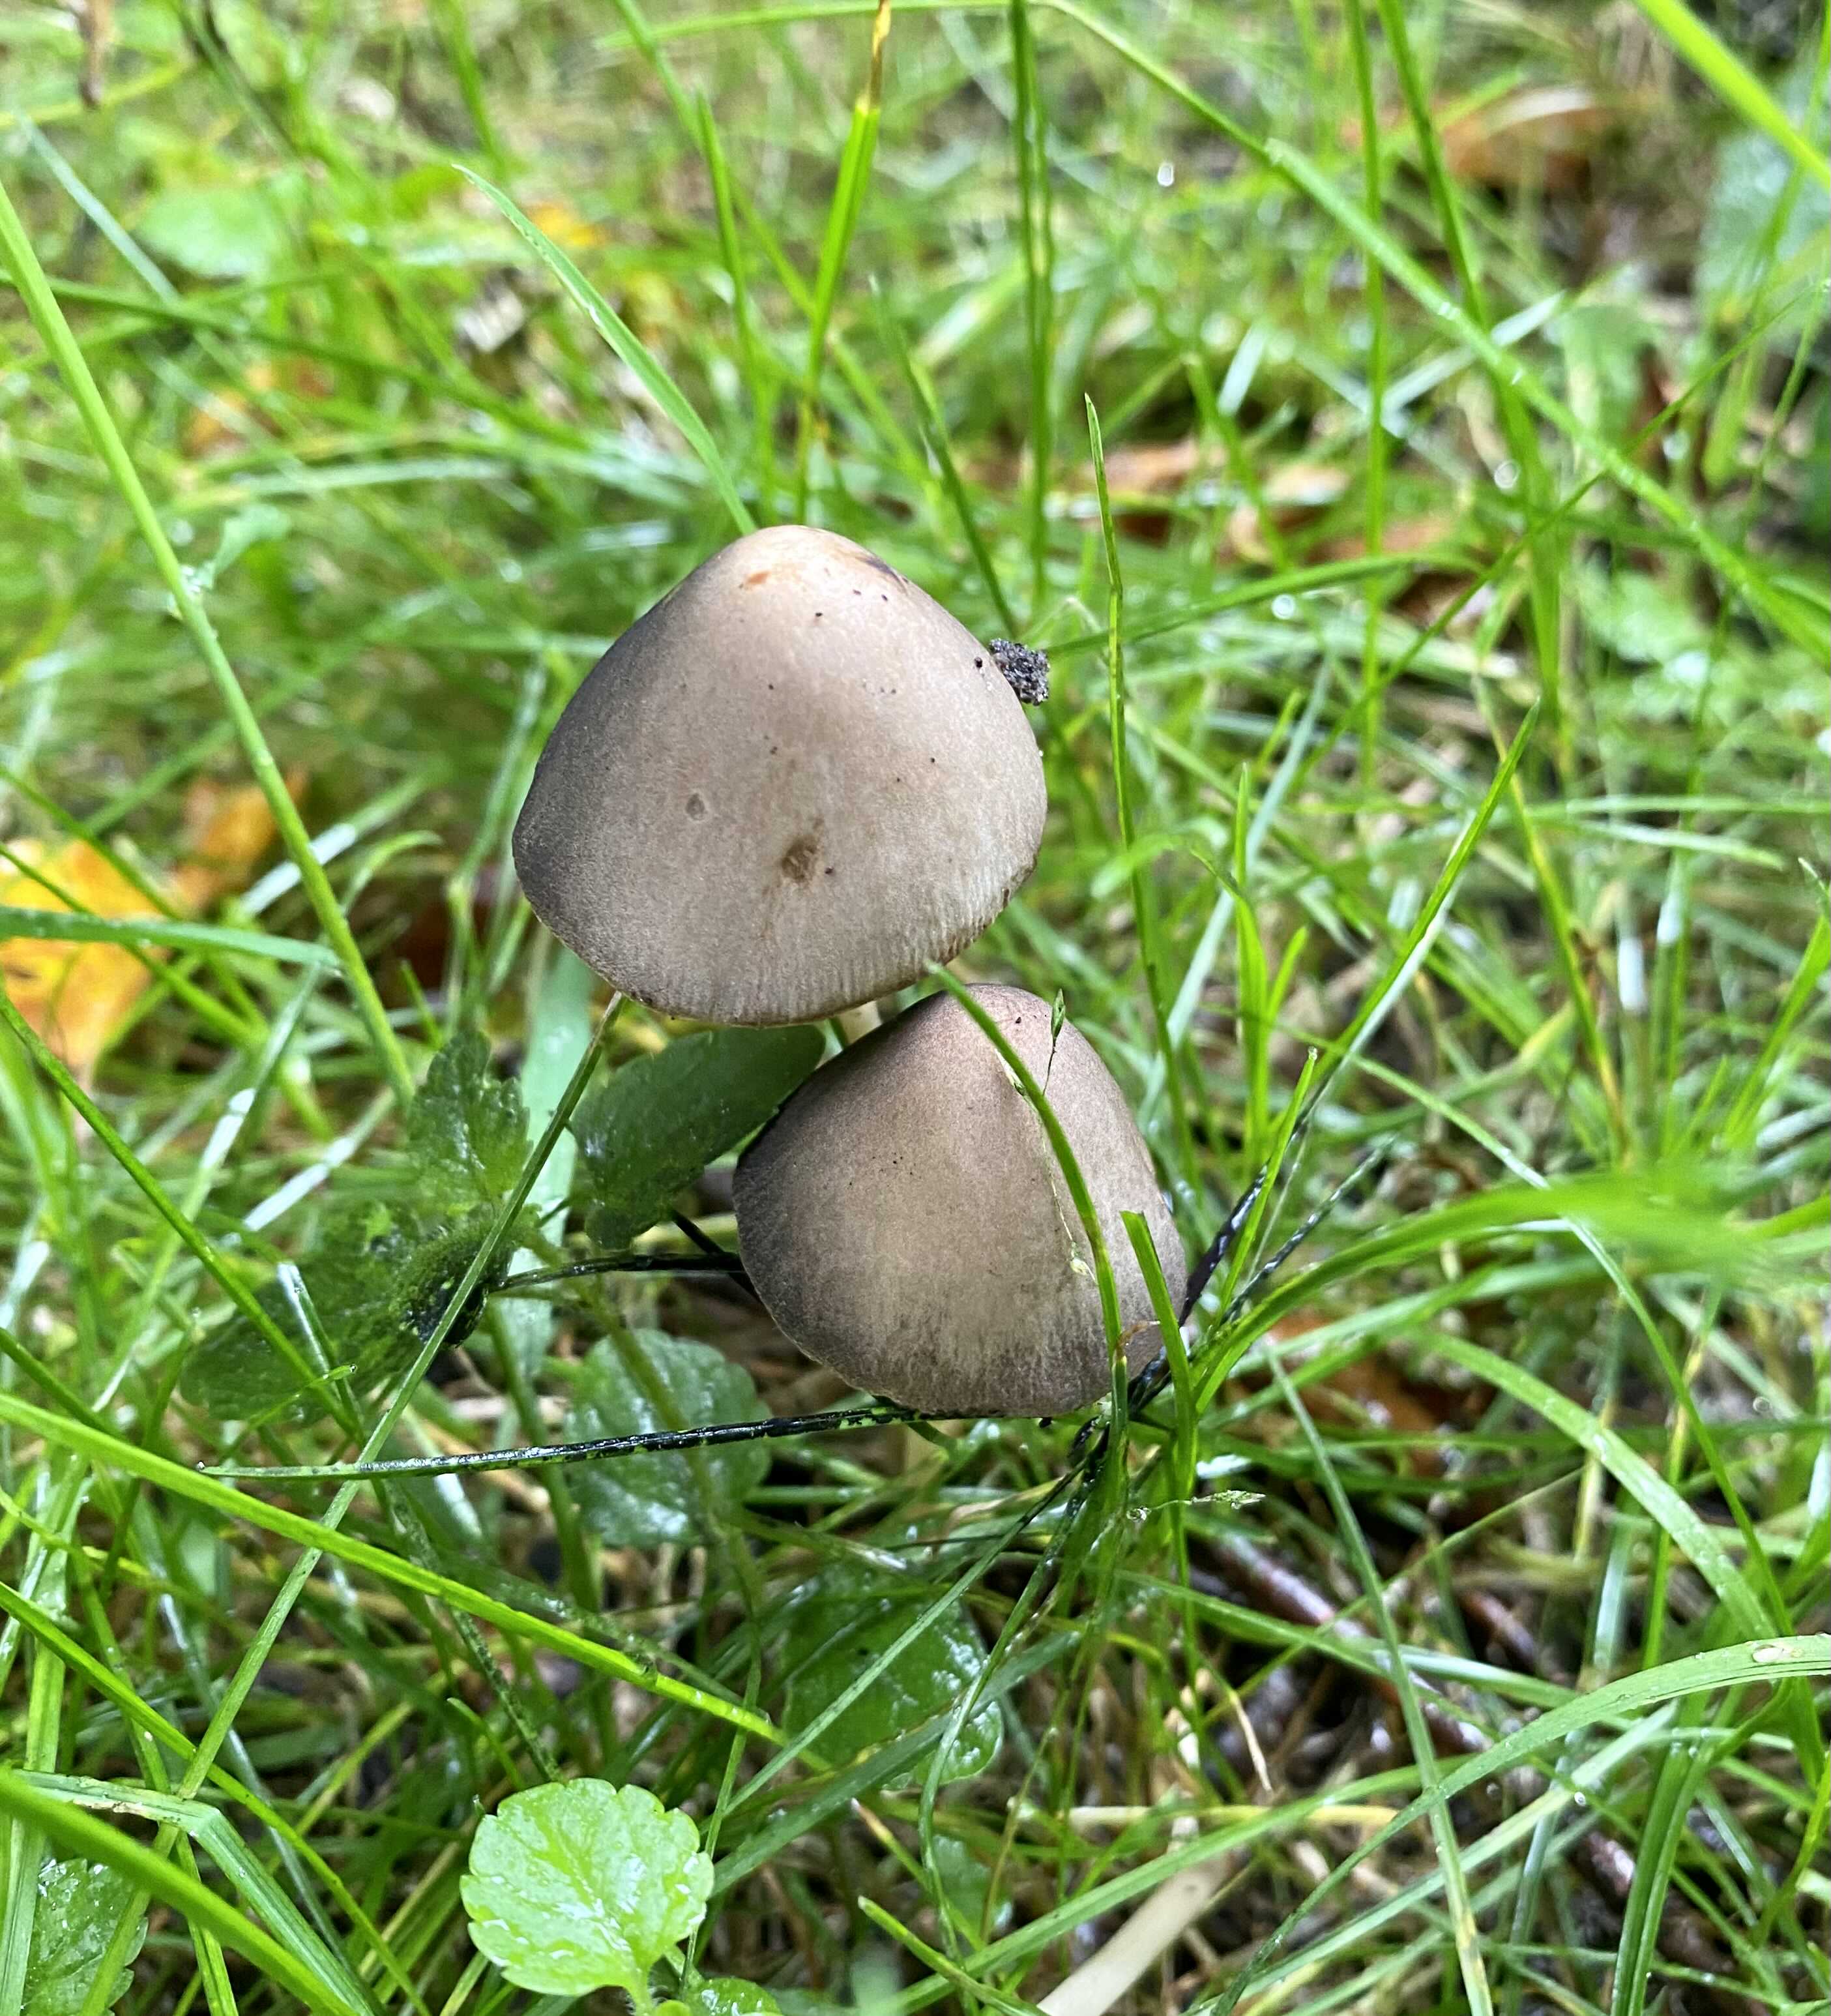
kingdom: Fungi
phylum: Basidiomycota
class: Agaricomycetes
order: Agaricales
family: Psathyrellaceae
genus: Parasola
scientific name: Parasola conopilea
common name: kegle-hjulhat
